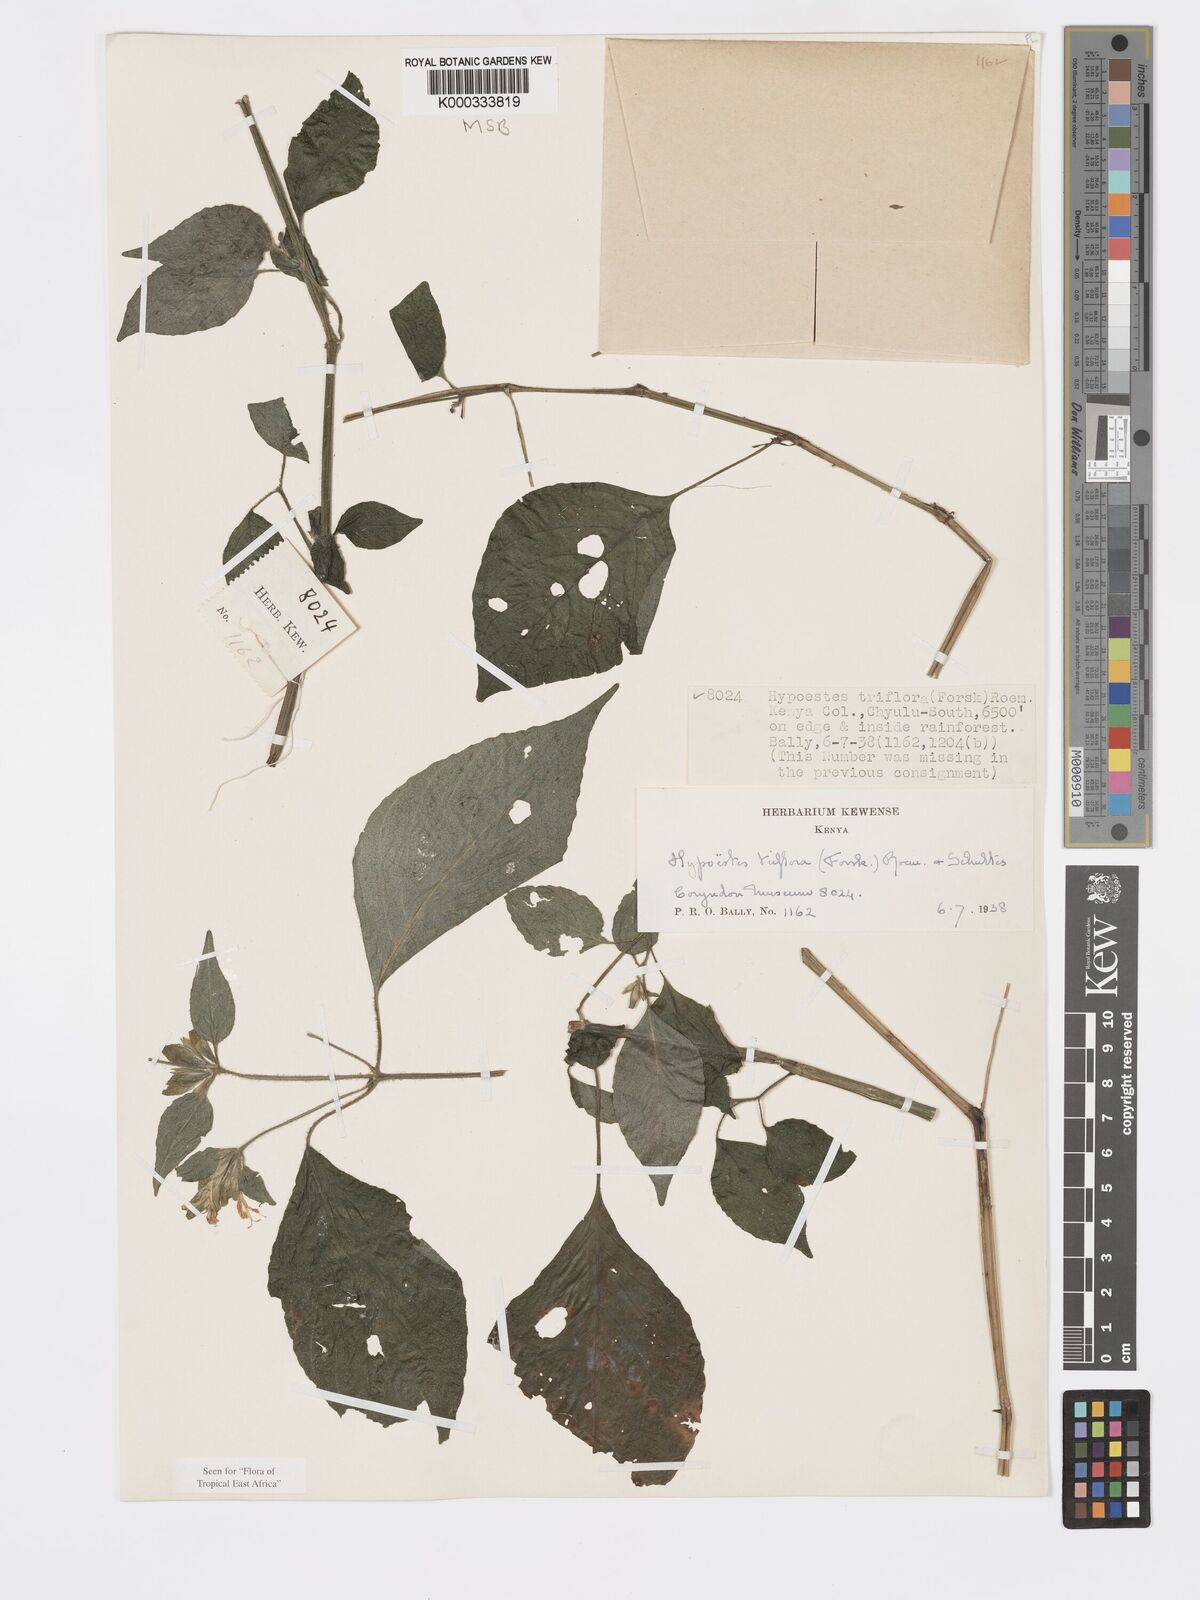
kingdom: Plantae
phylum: Tracheophyta
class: Magnoliopsida
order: Lamiales
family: Acanthaceae
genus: Hypoestes
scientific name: Hypoestes triflora
